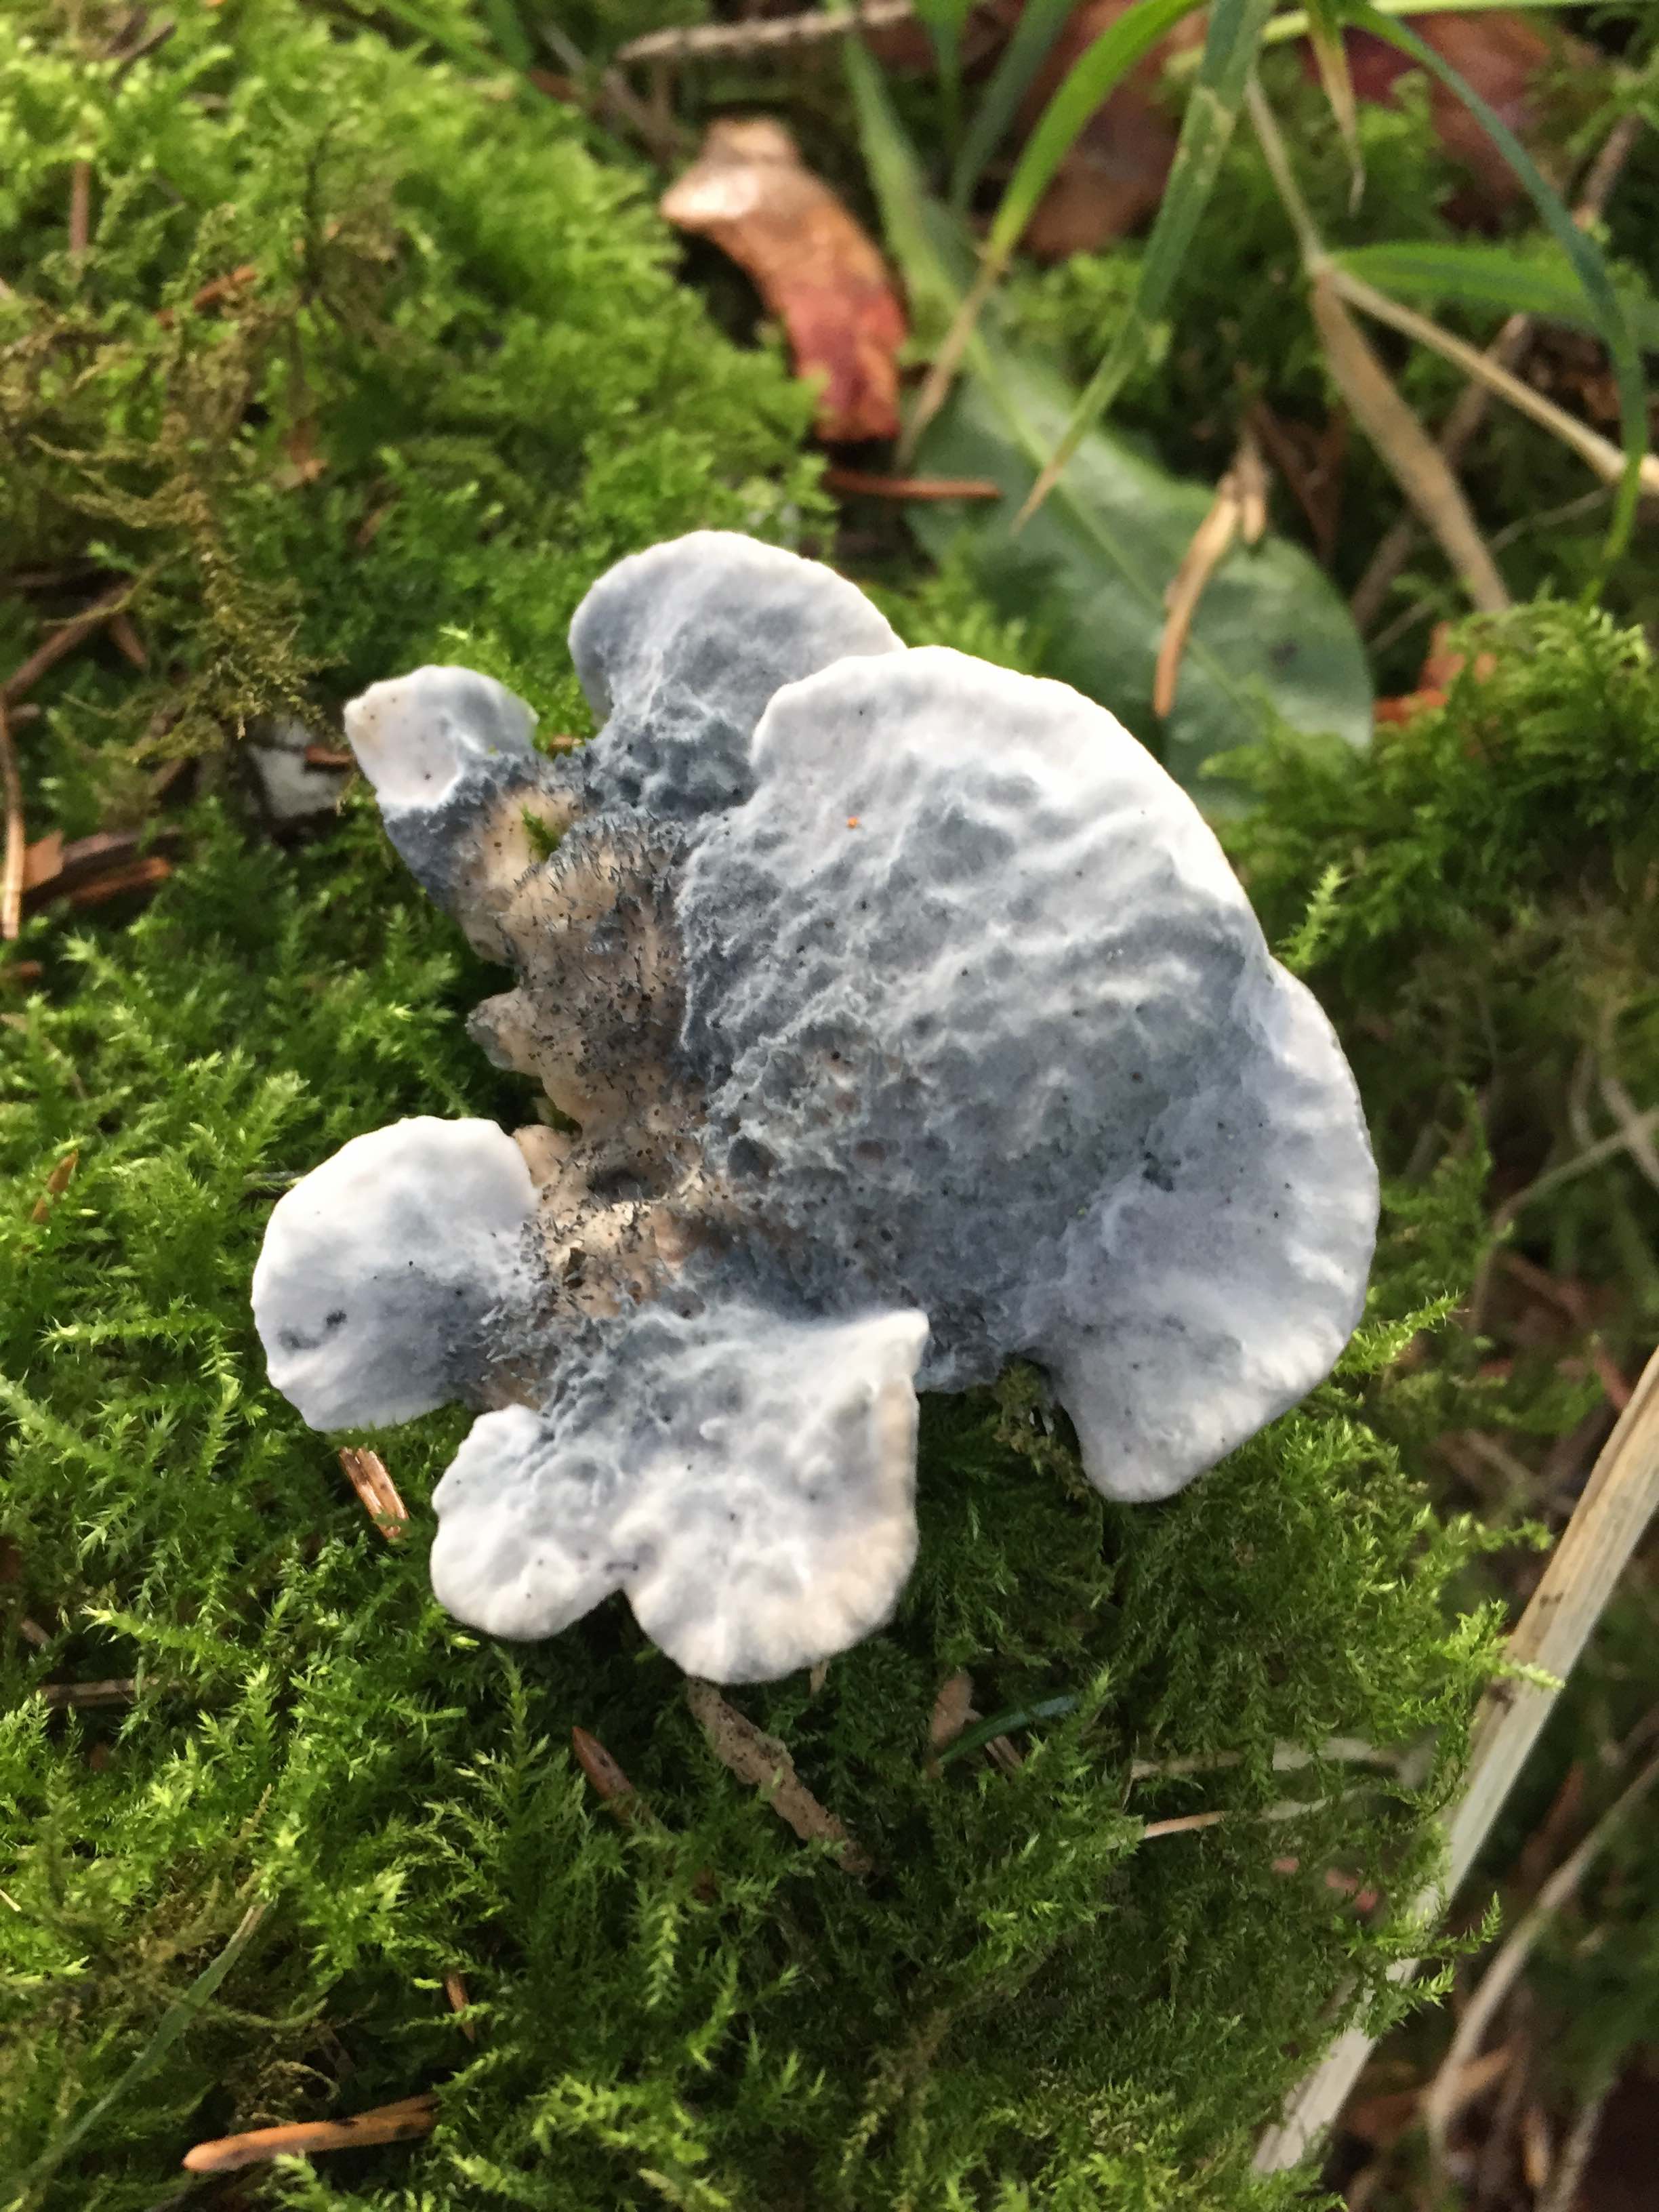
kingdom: Fungi
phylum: Basidiomycota
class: Agaricomycetes
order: Polyporales
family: Polyporaceae
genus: Cyanosporus
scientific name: Cyanosporus caesius
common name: blålig kødporesvamp
